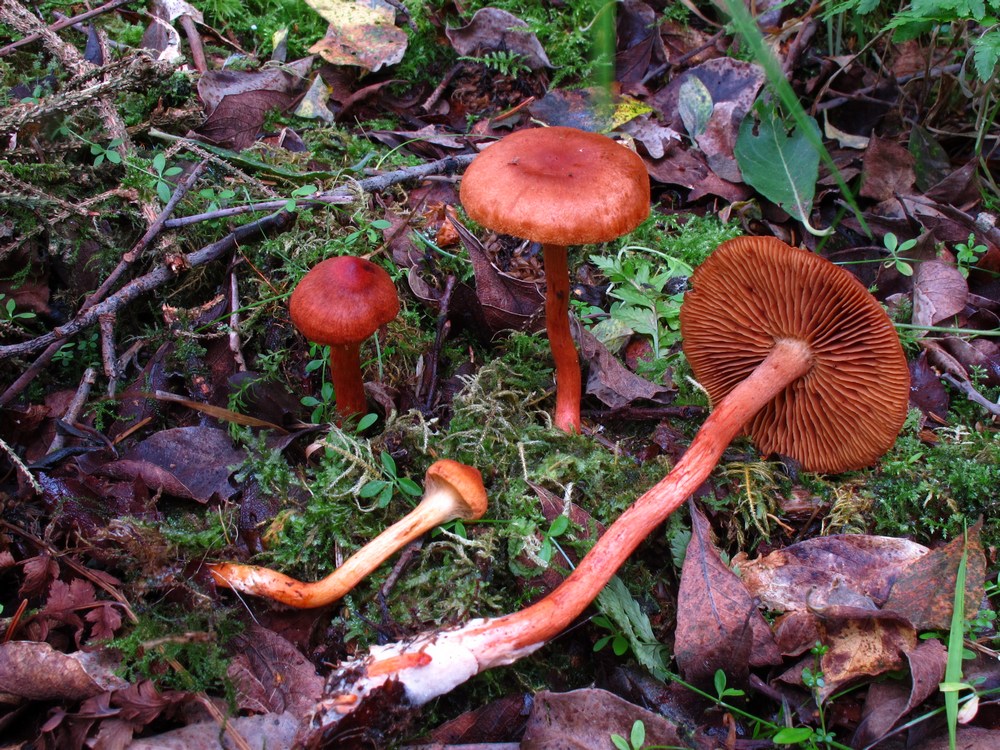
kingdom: Fungi
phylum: Basidiomycota
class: Agaricomycetes
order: Agaricales
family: Cortinariaceae
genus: Cortinarius
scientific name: Cortinarius uliginosus
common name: mose-slørhat
